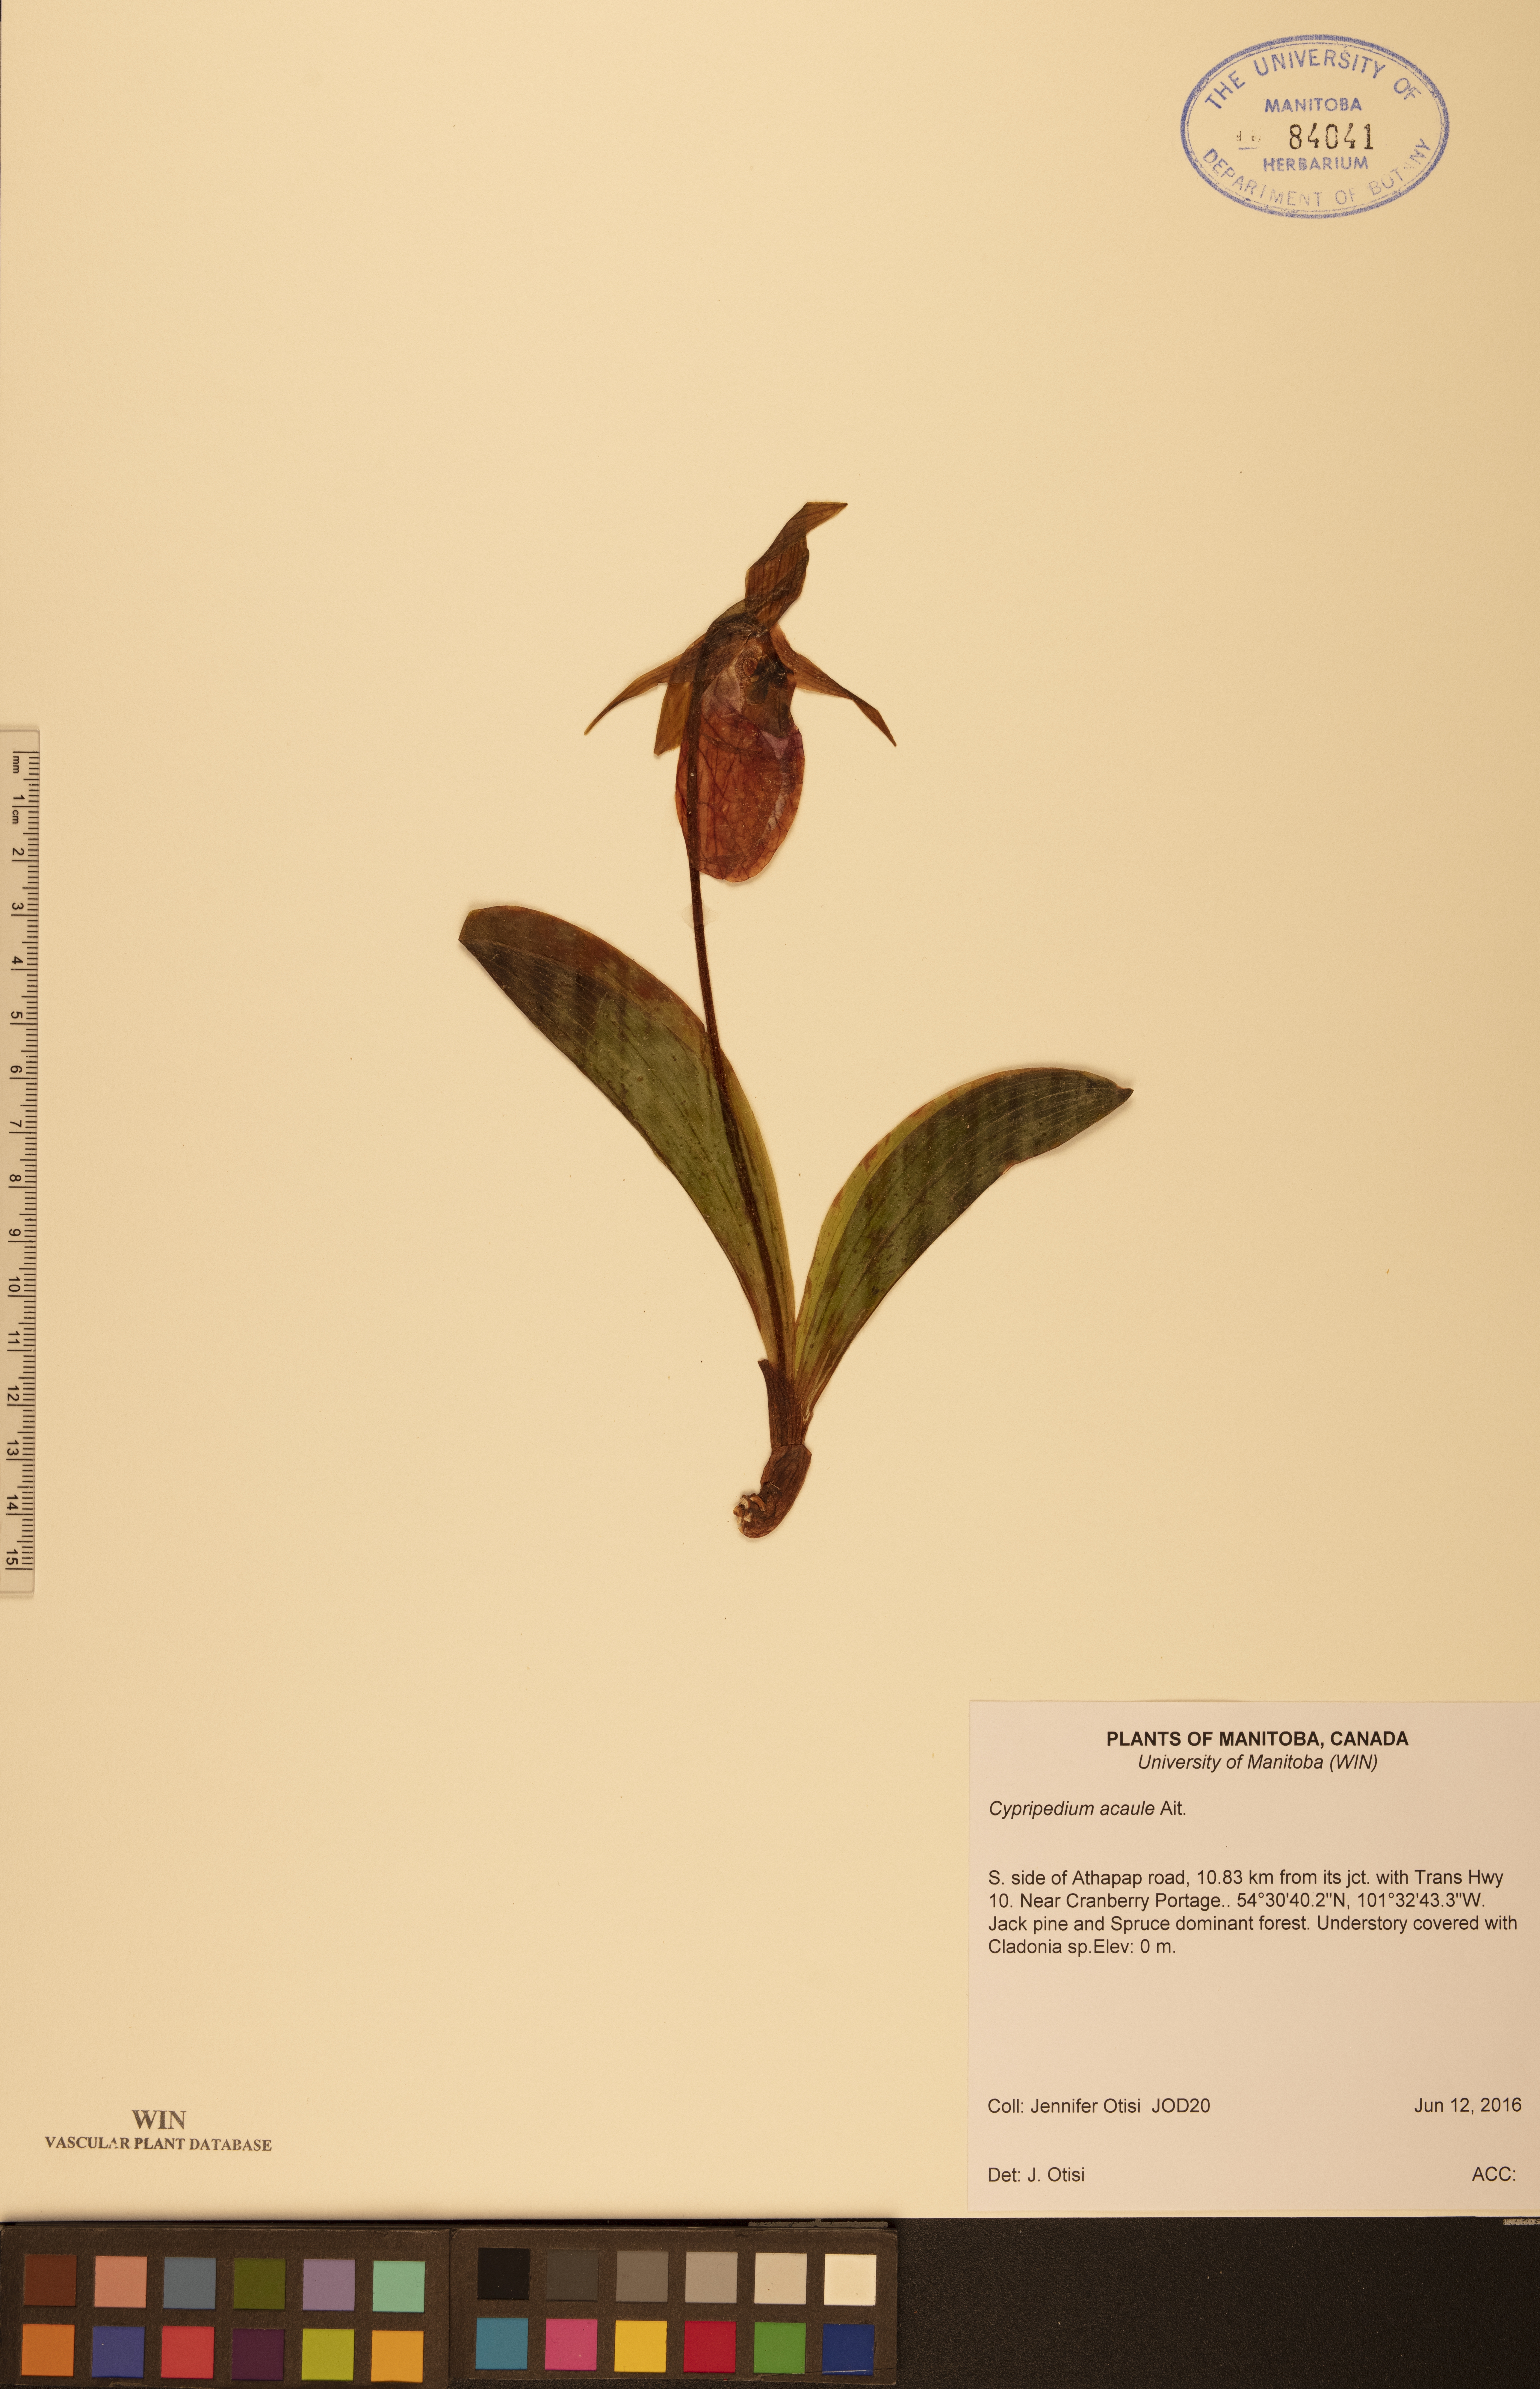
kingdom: Plantae
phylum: Tracheophyta
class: Liliopsida
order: Asparagales
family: Orchidaceae
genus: Cypripedium
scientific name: Cypripedium acaule
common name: Pink lady's-slipper
